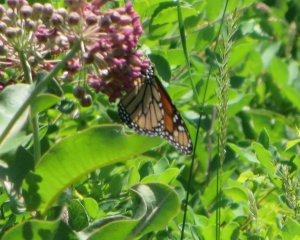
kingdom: Animalia
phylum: Arthropoda
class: Insecta
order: Lepidoptera
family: Nymphalidae
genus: Danaus
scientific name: Danaus plexippus
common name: Monarch
